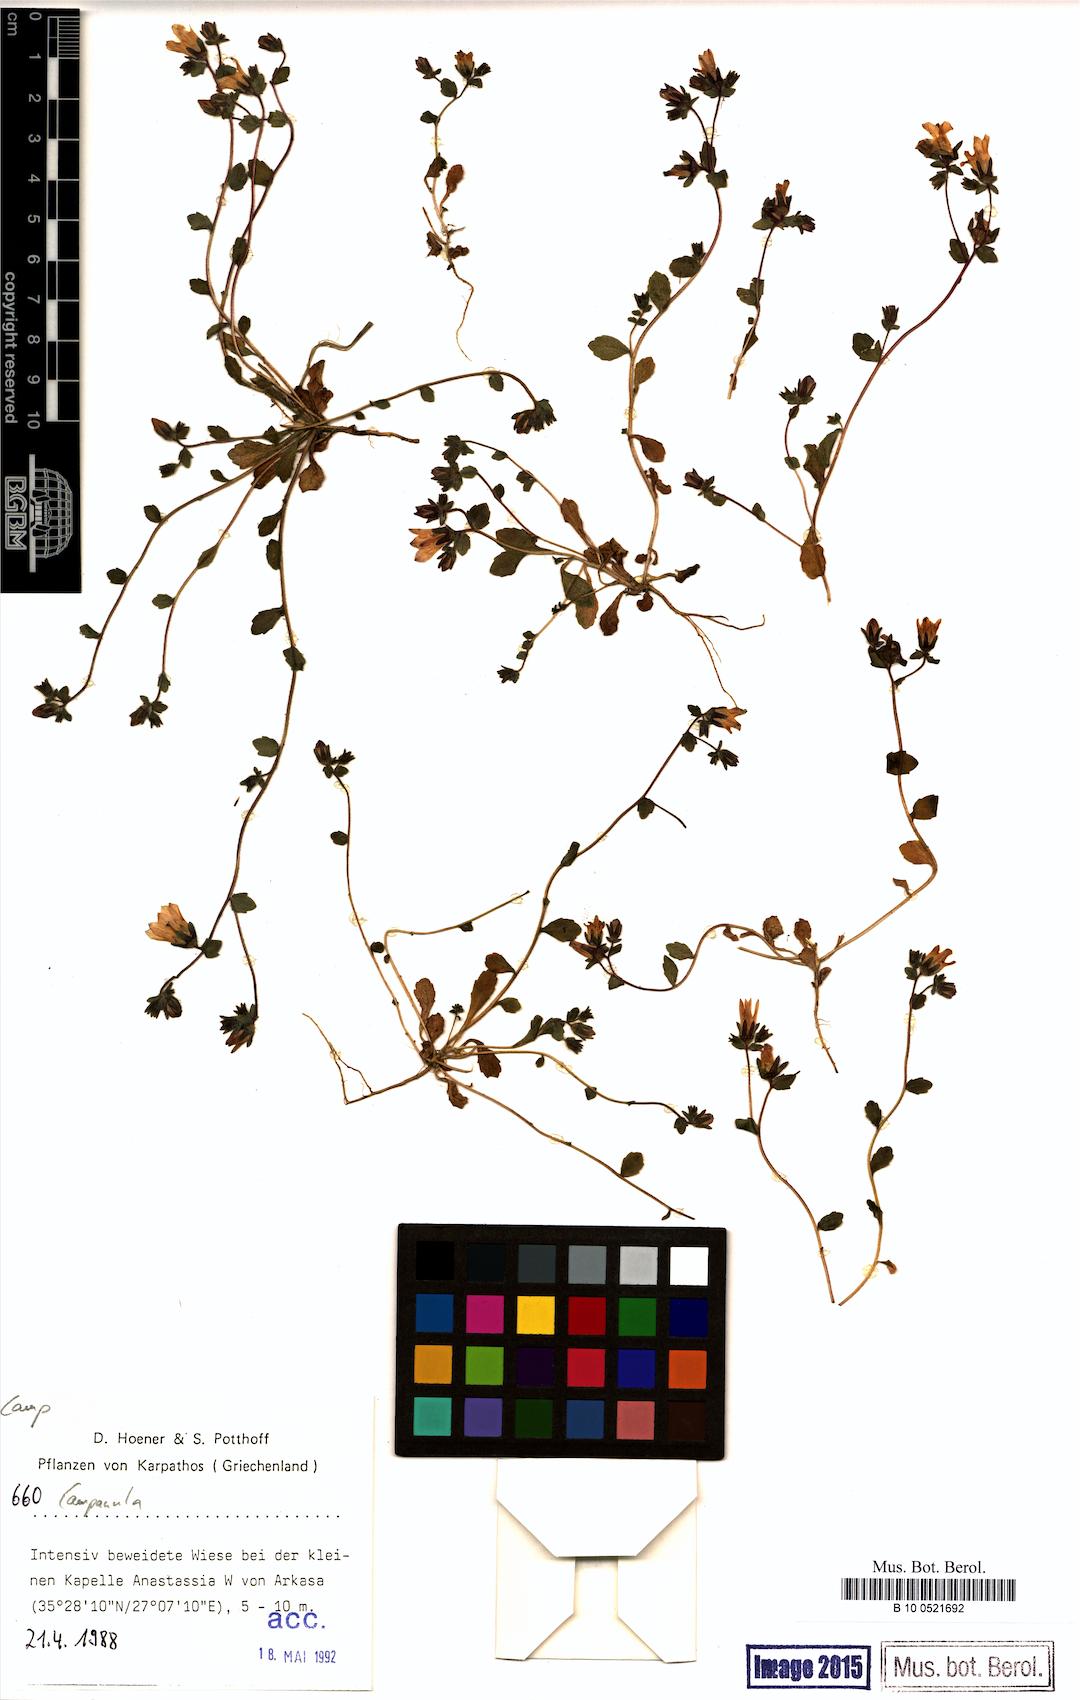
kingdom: Plantae
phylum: Tracheophyta
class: Magnoliopsida
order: Asterales
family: Campanulaceae
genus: Campanula
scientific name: Campanula
